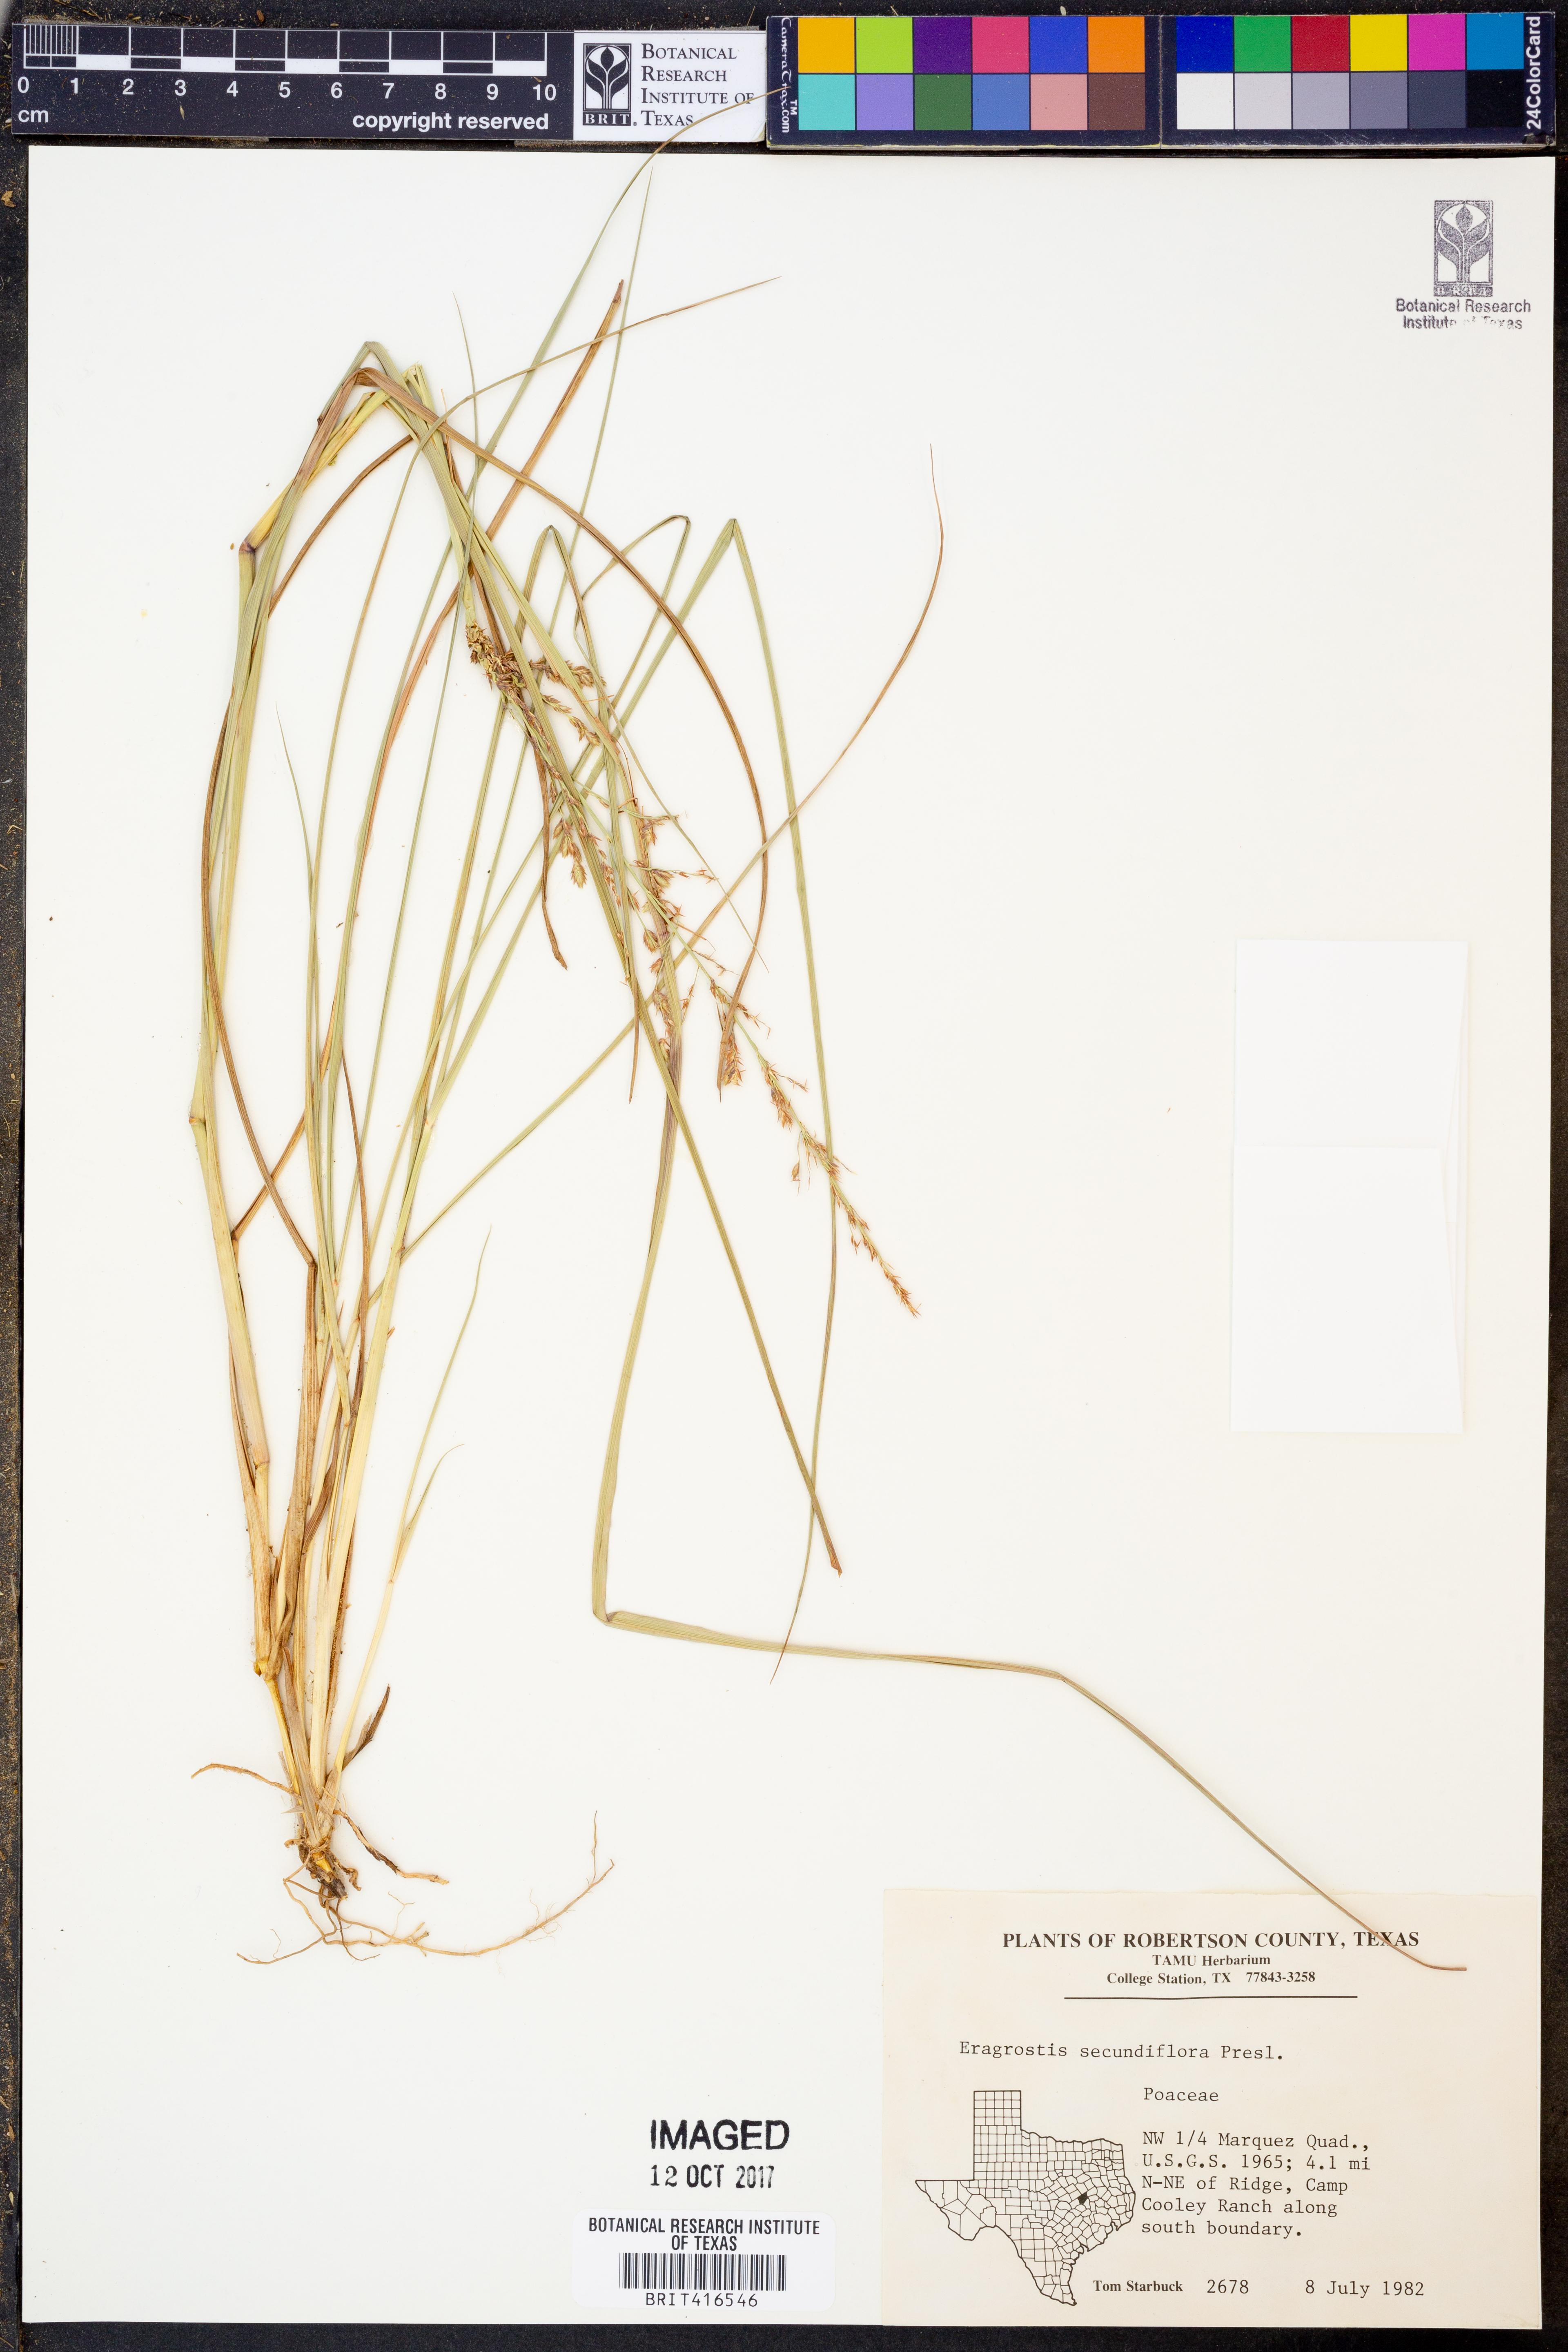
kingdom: Plantae
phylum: Tracheophyta
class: Liliopsida
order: Poales
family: Poaceae
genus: Eragrostis
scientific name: Eragrostis secundiflora
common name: Red love grass
